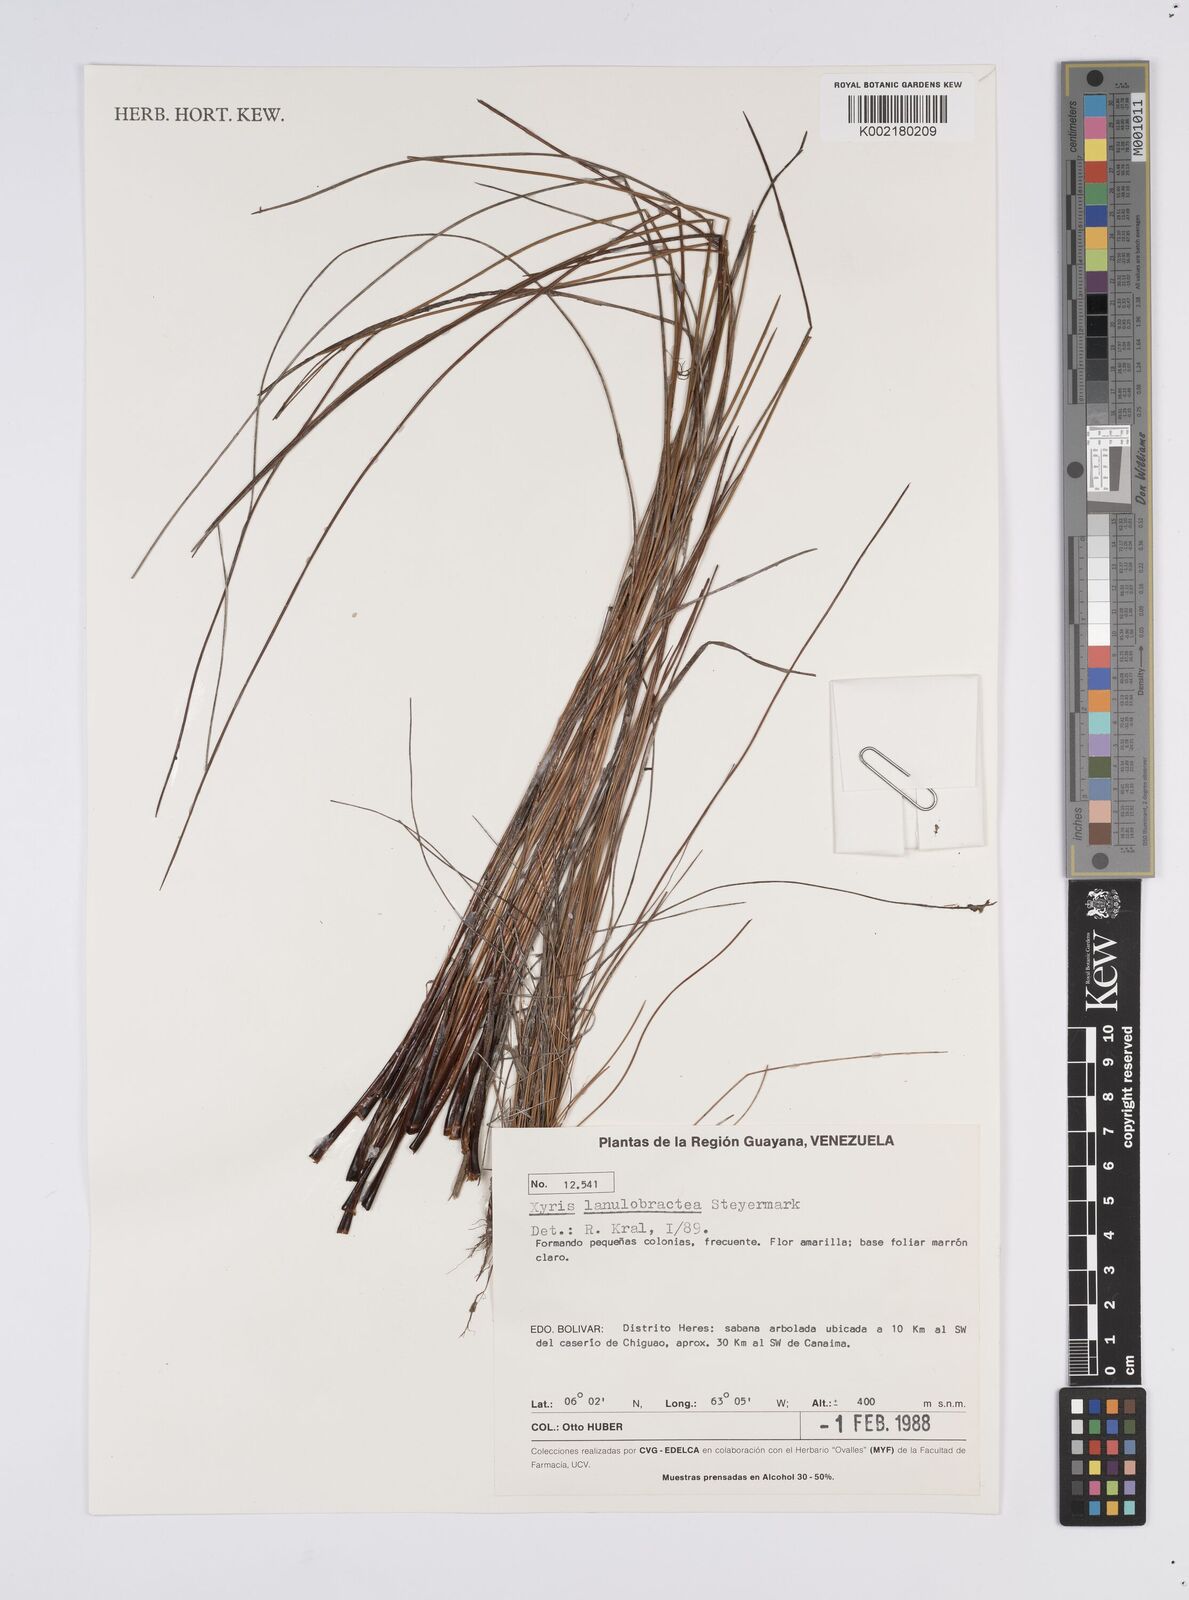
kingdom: Plantae
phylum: Tracheophyta
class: Liliopsida
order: Poales
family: Xyridaceae
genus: Xyris
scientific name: Xyris lanulobractea
